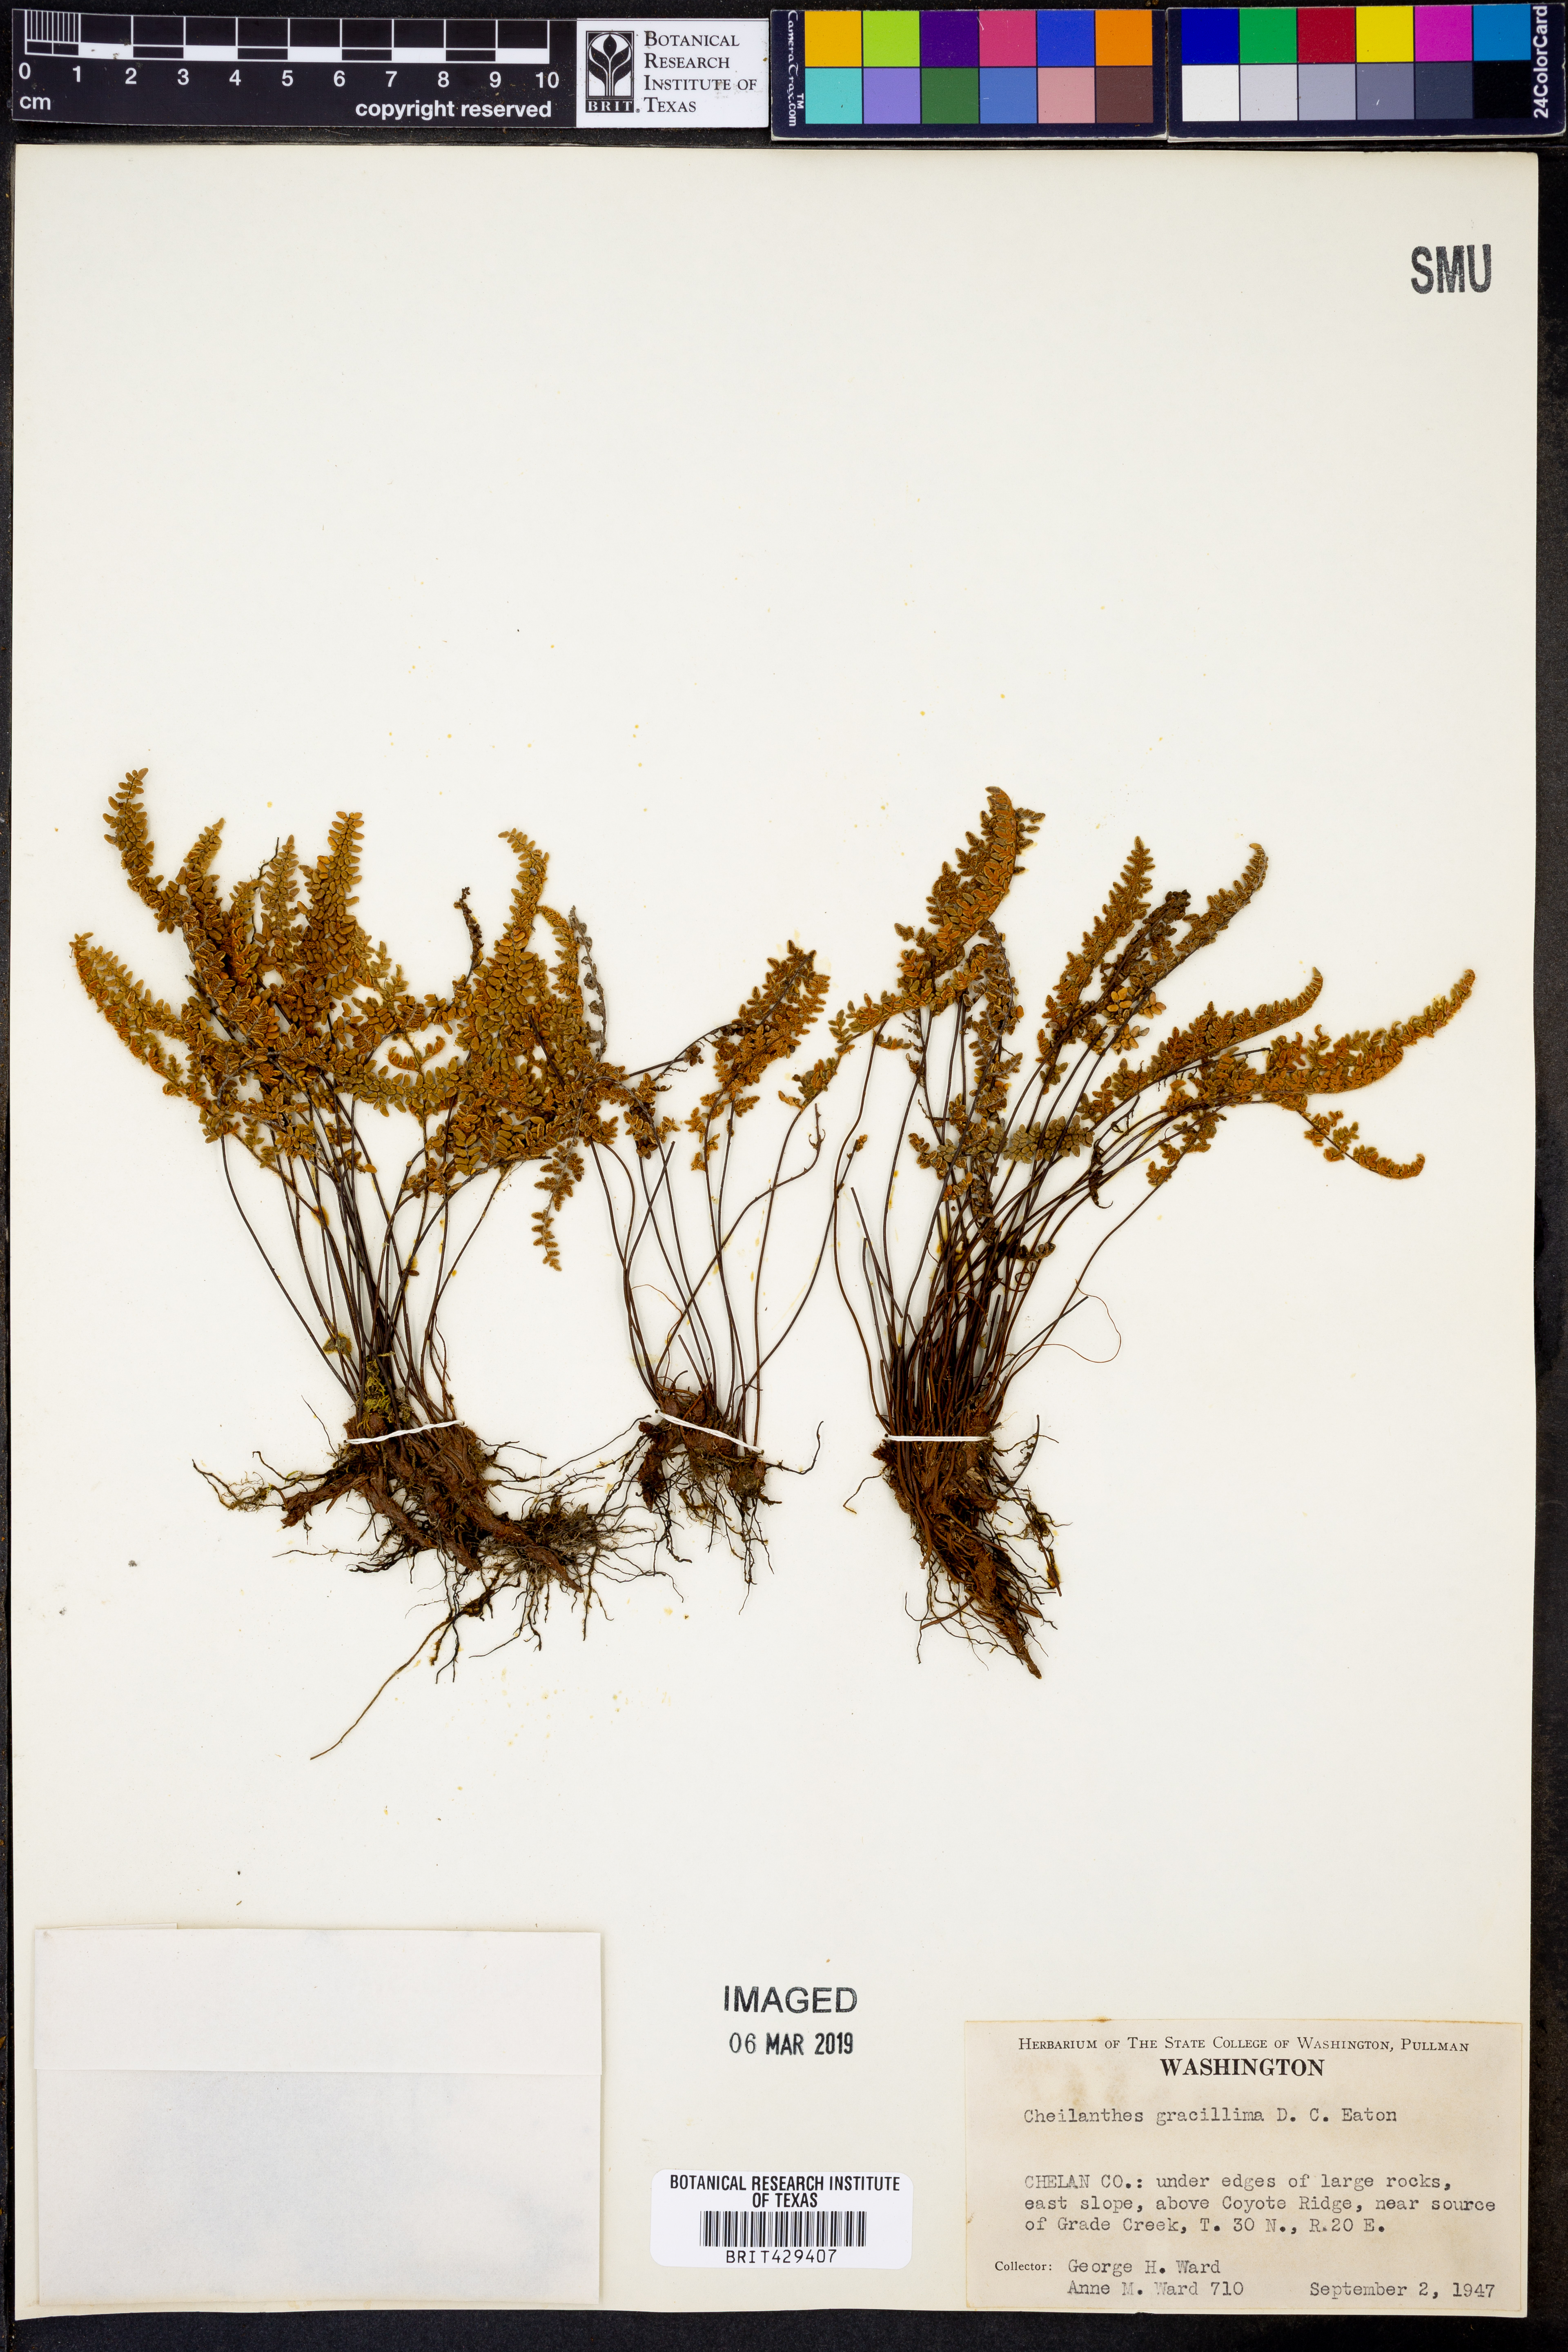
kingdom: Plantae
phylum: Tracheophyta
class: Polypodiopsida
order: Polypodiales
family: Pteridaceae
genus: Myriopteris
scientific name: Myriopteris gracillima
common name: Lace fern
